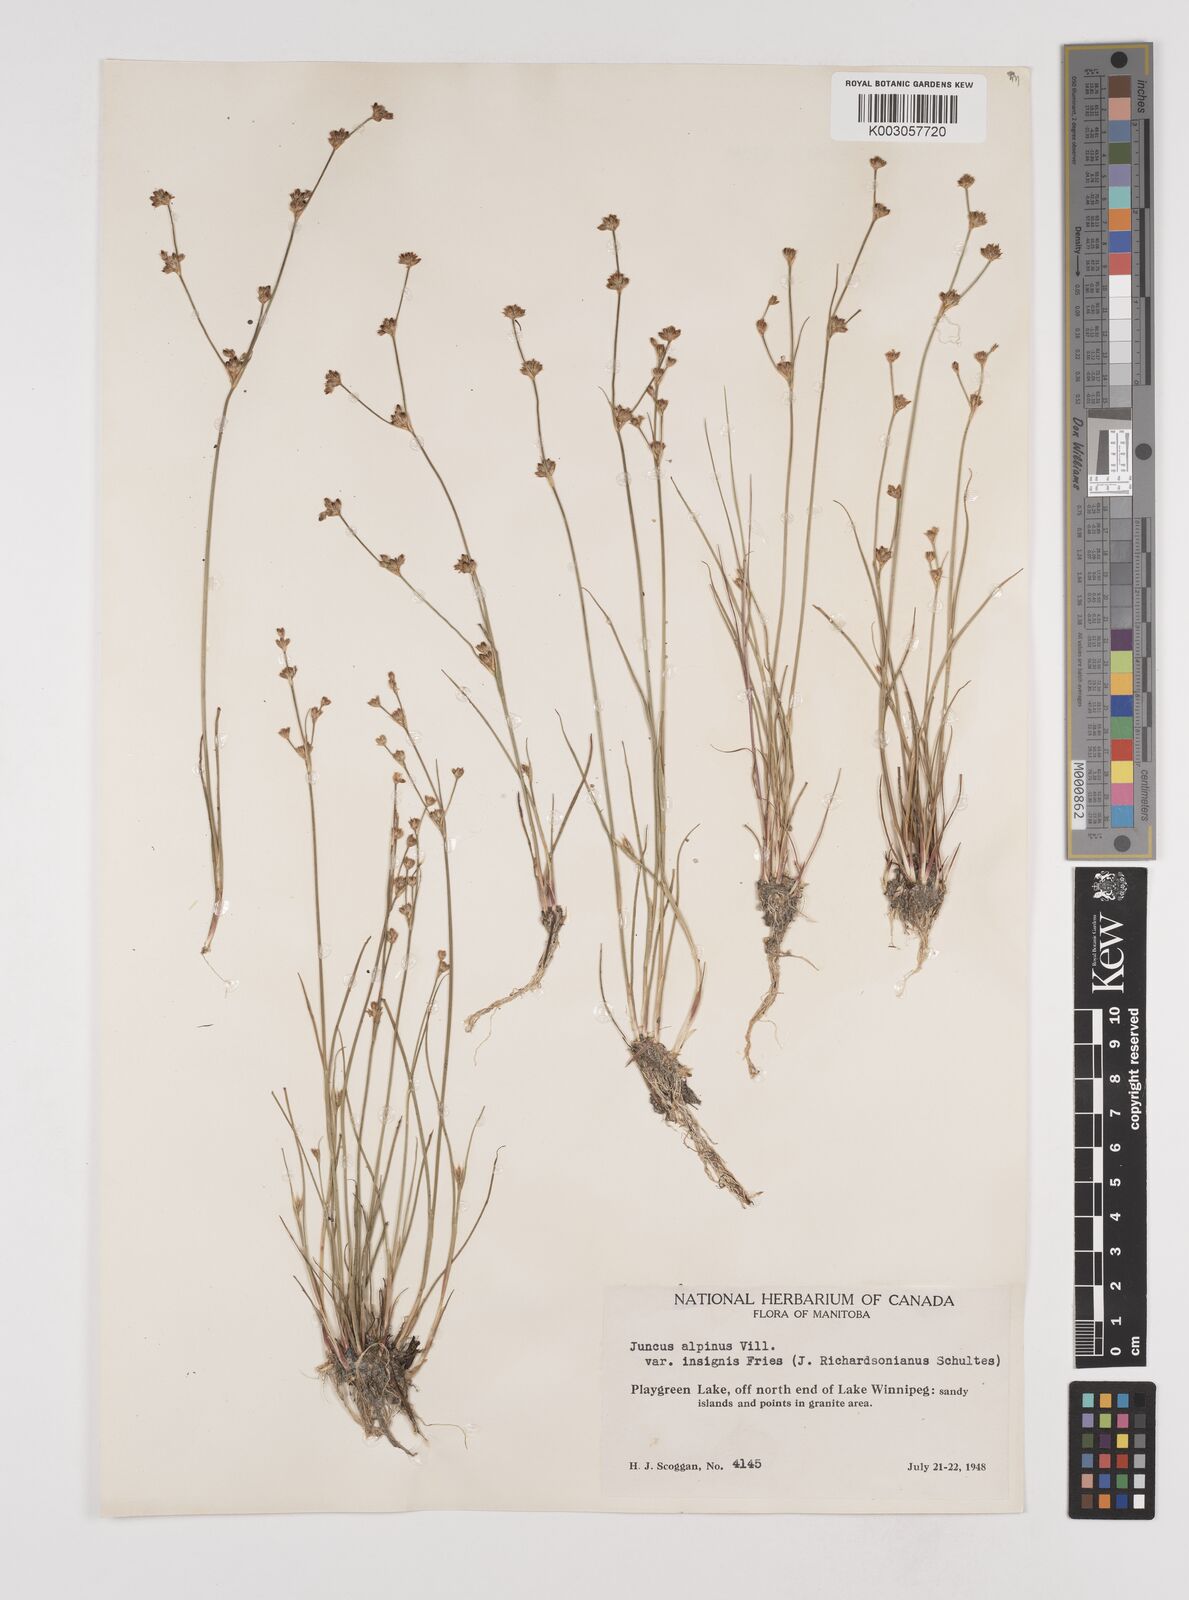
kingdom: Plantae
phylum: Tracheophyta
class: Liliopsida
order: Poales
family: Juncaceae
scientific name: Juncaceae
